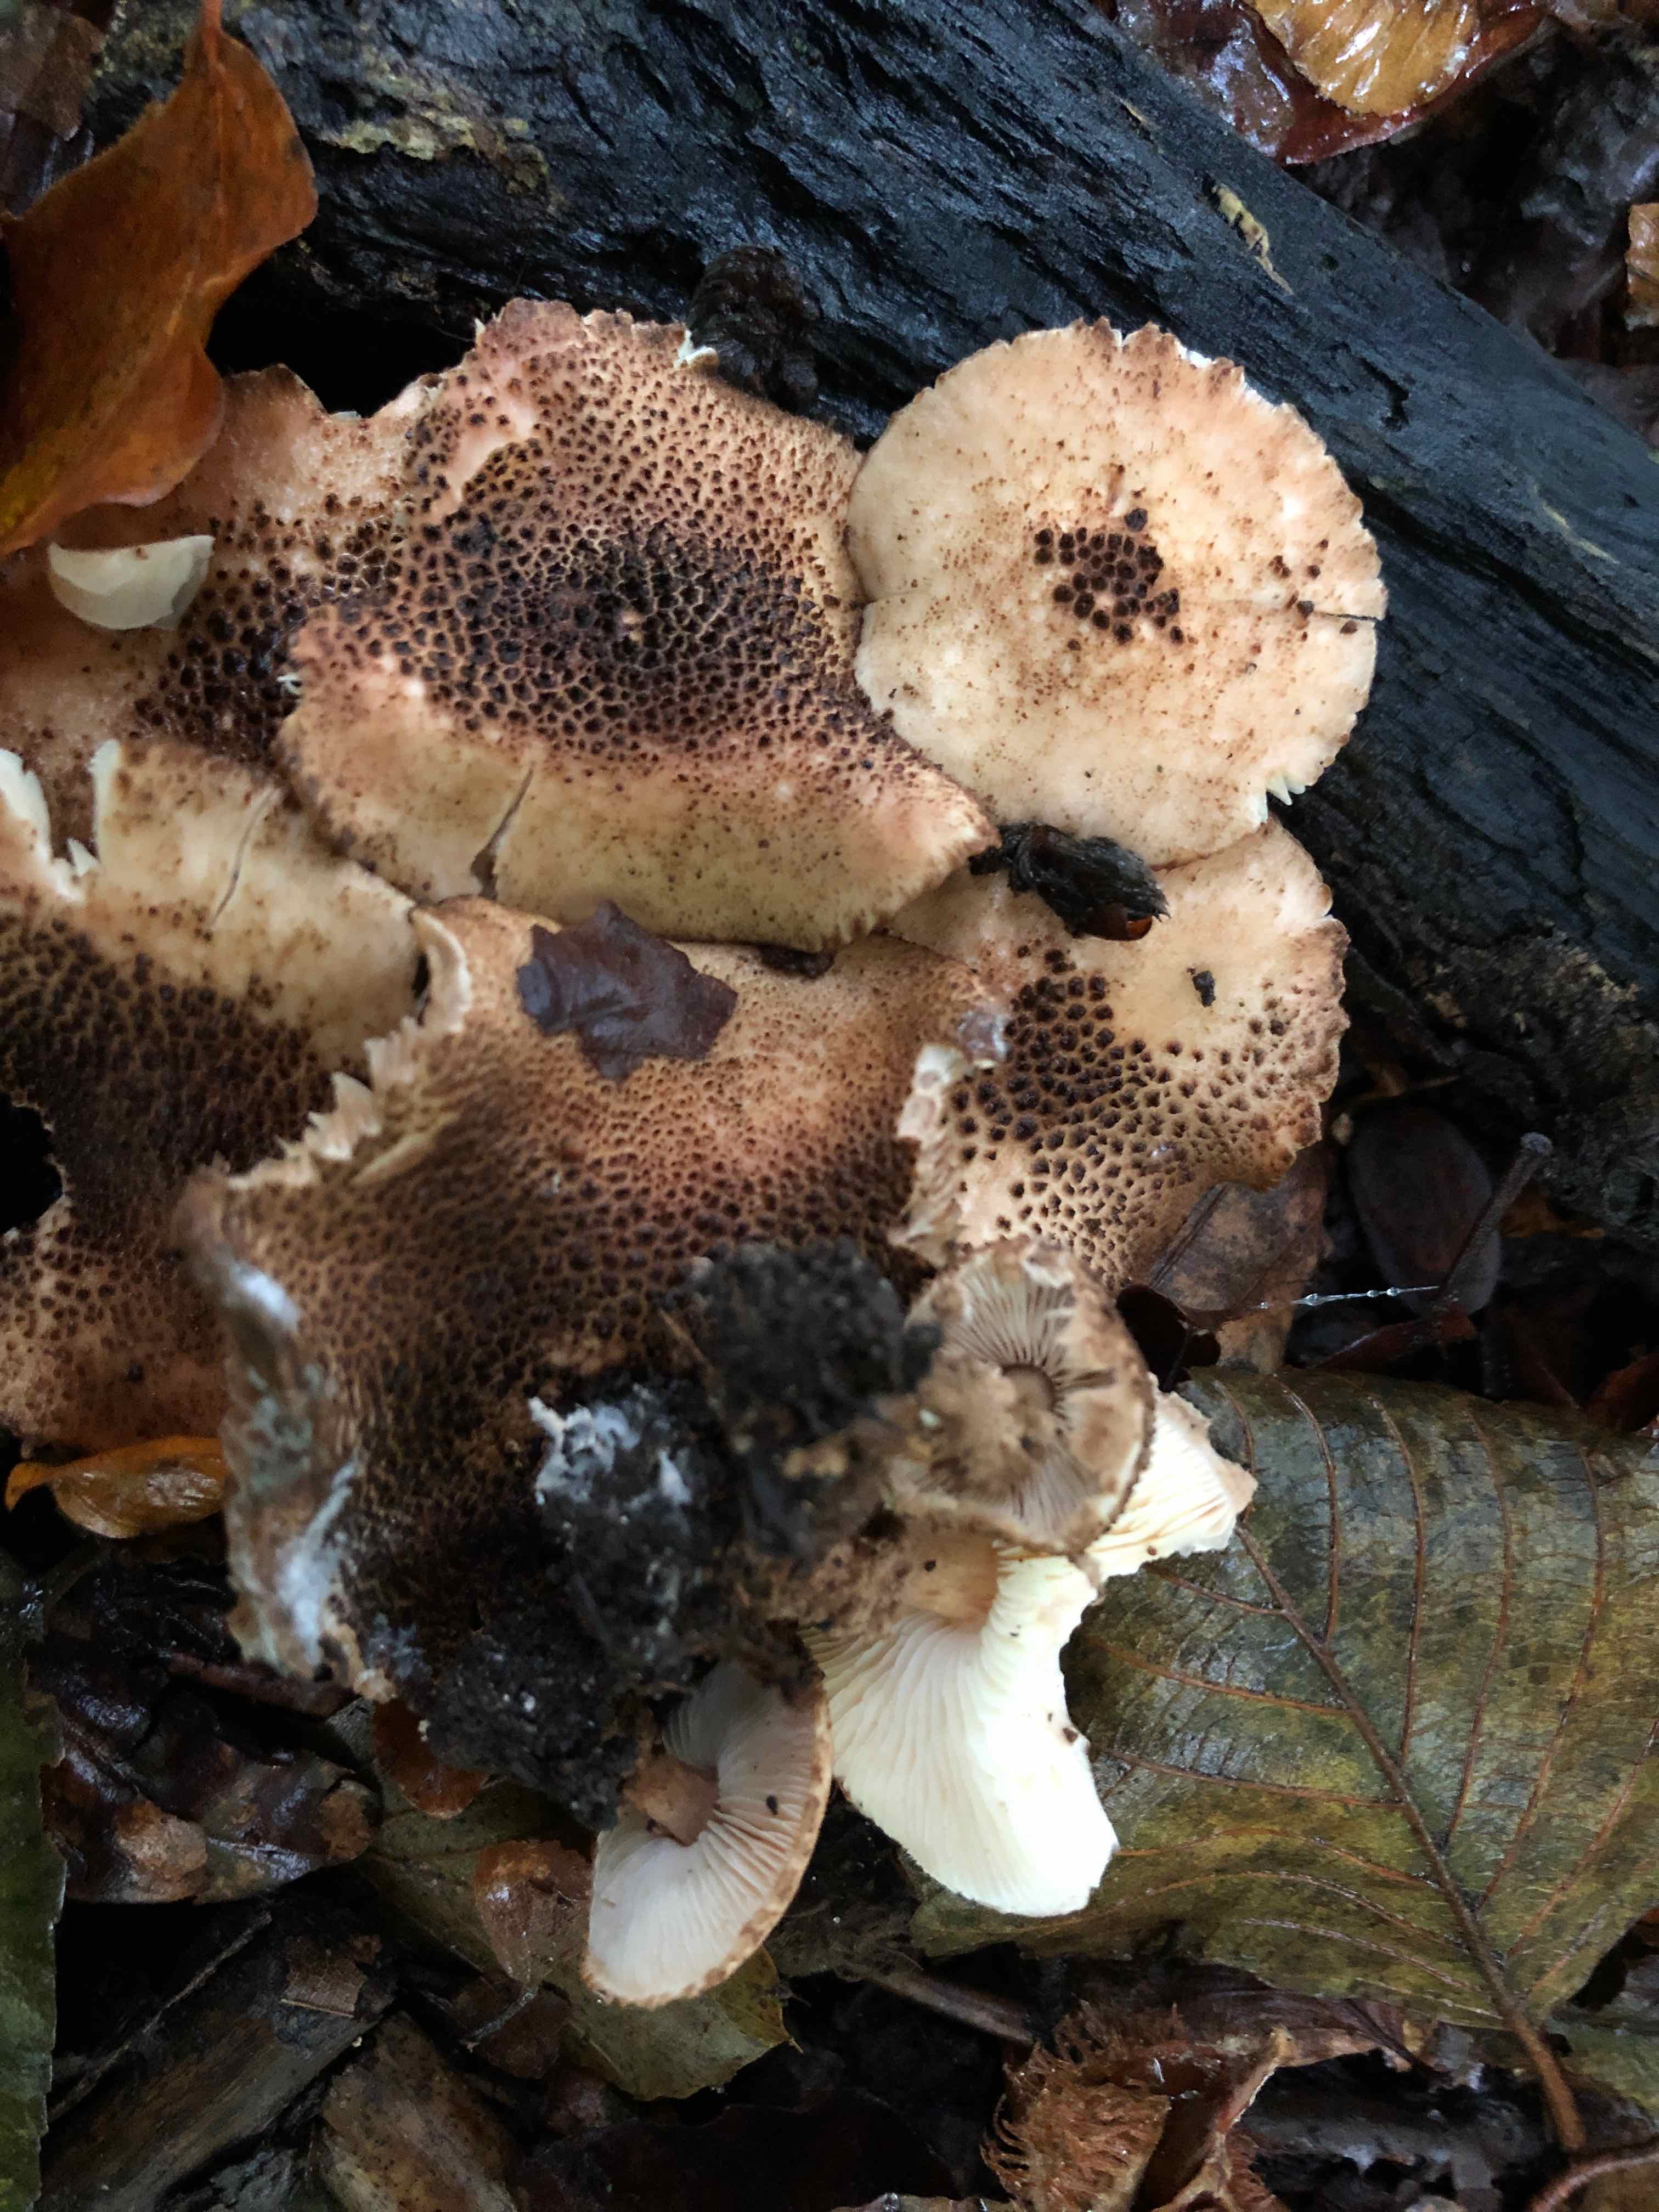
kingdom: Fungi
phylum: Basidiomycota
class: Agaricomycetes
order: Agaricales
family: Agaricaceae
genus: Echinoderma
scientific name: Echinoderma jacobi
